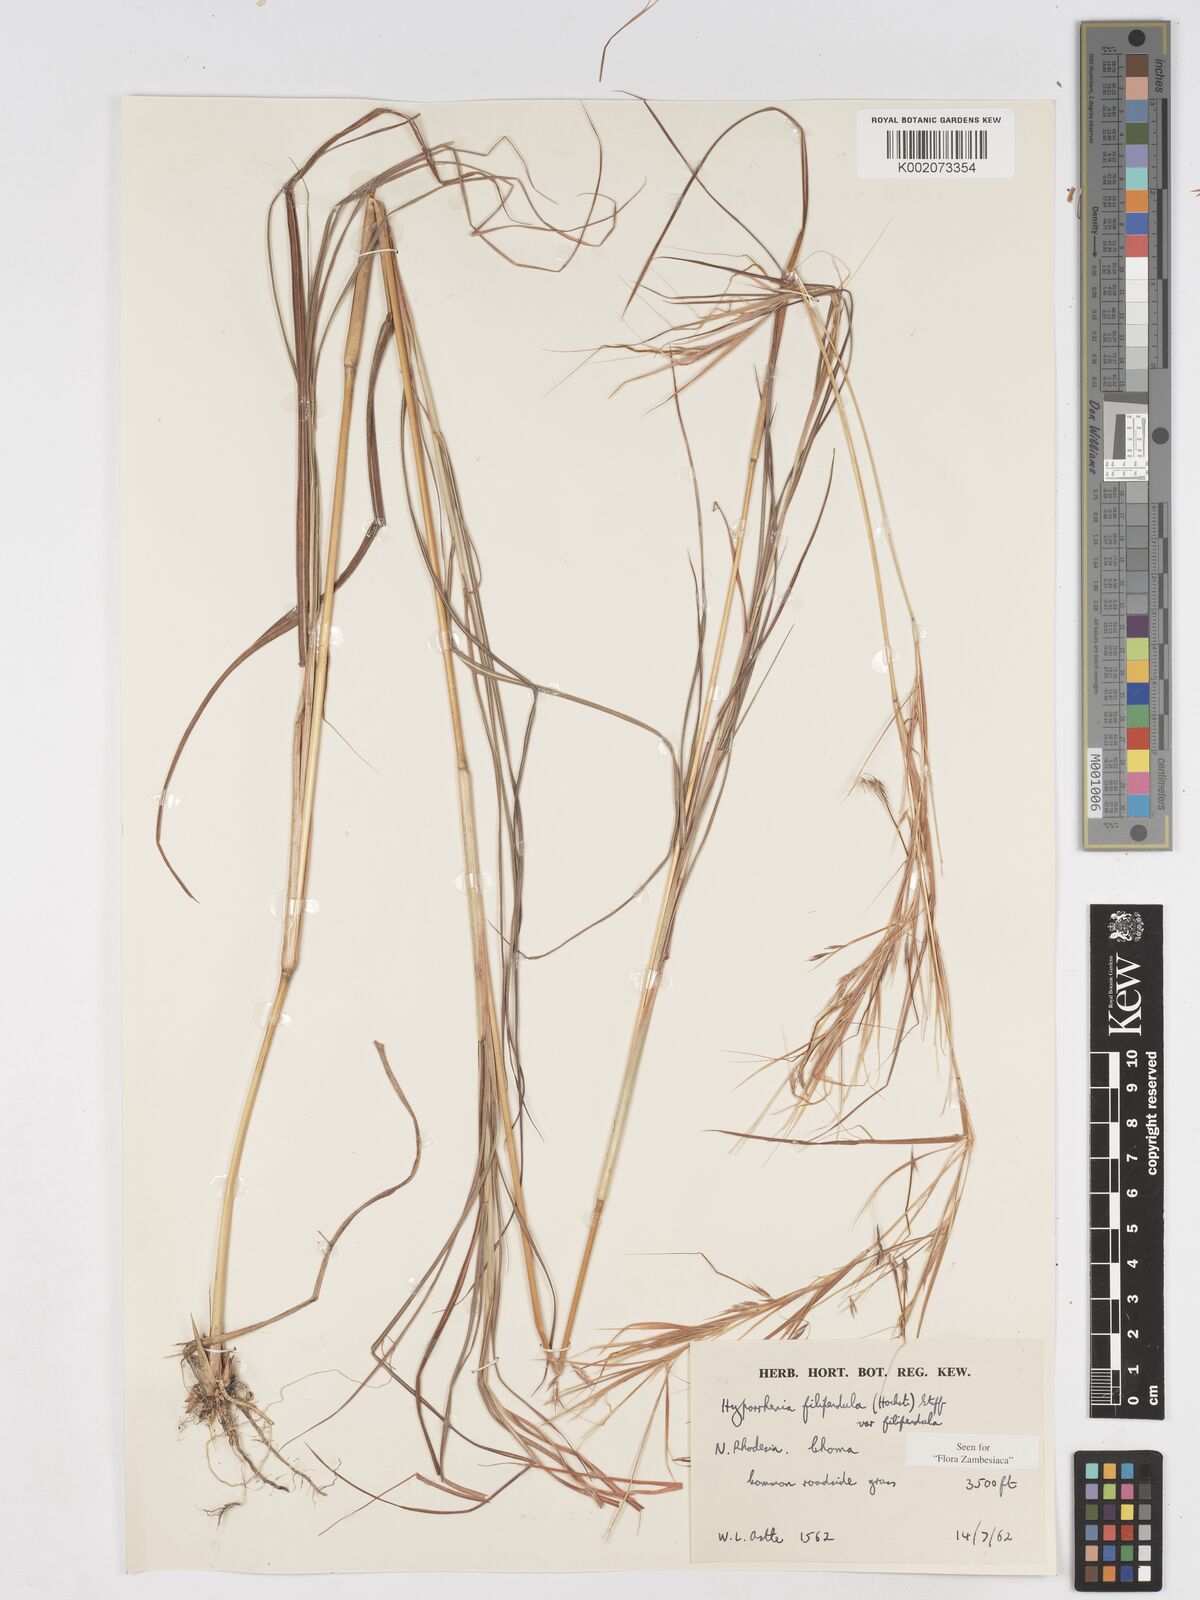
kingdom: Plantae
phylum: Tracheophyta
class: Liliopsida
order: Poales
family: Poaceae
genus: Hyparrhenia
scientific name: Hyparrhenia filipendula
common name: Tambookie grass
